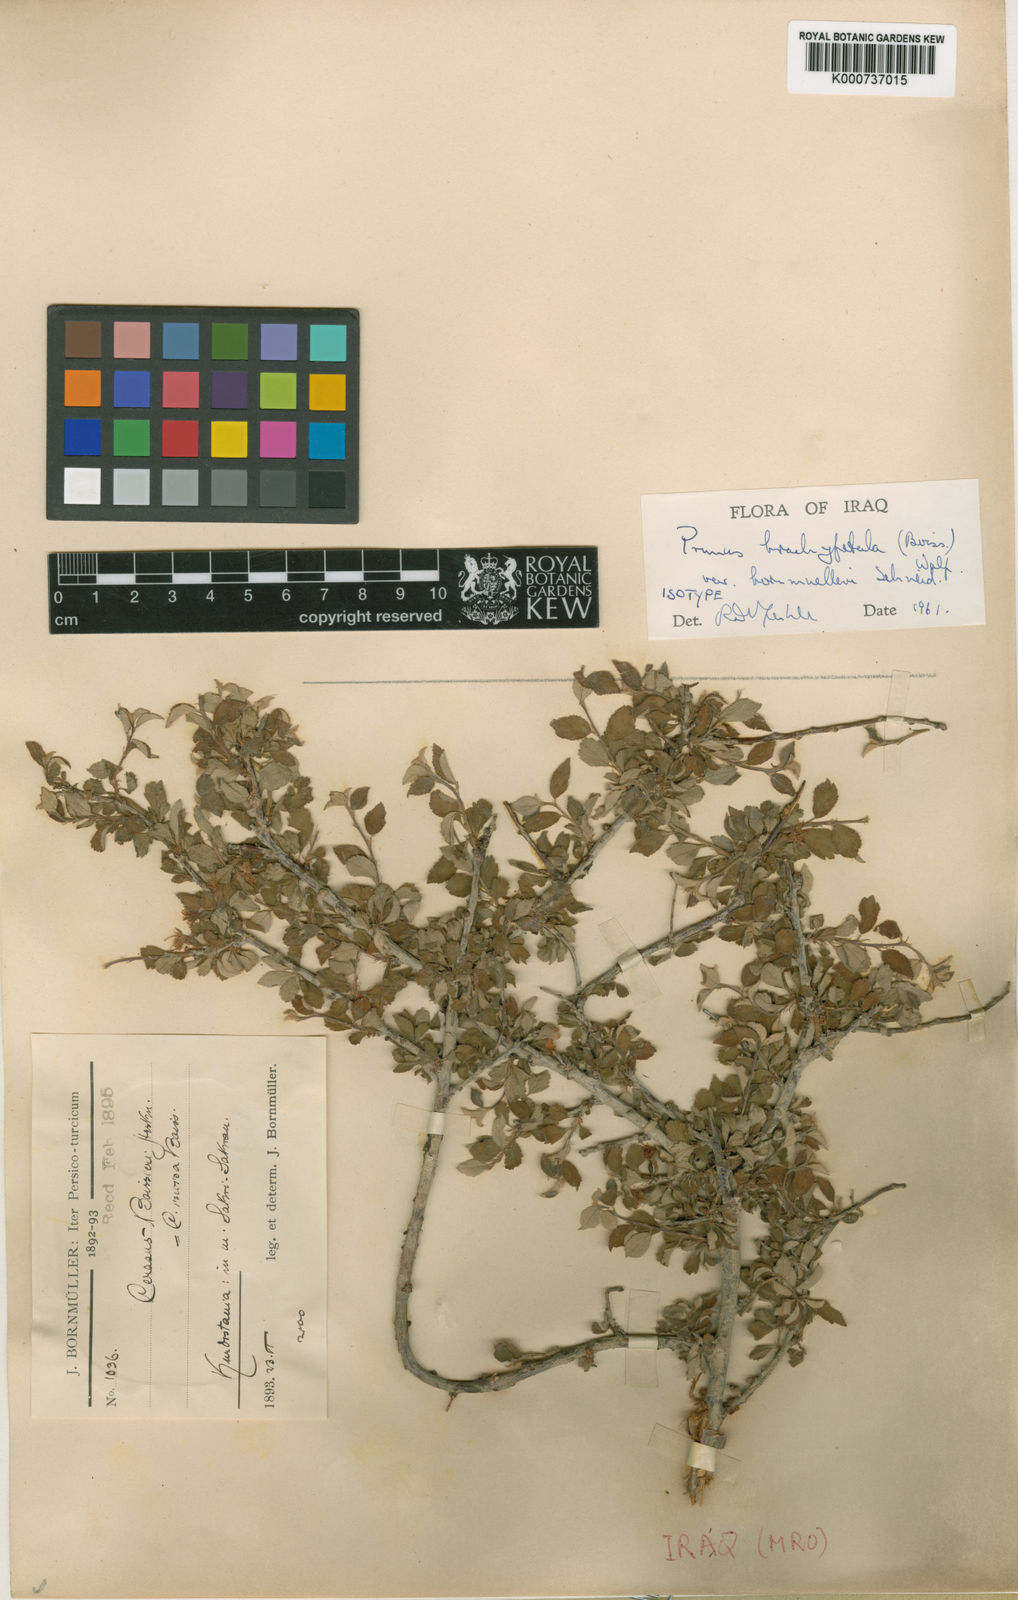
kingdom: Plantae
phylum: Tracheophyta
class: Magnoliopsida
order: Rosales
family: Rosaceae
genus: Prunus
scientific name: Prunus brachypetala
